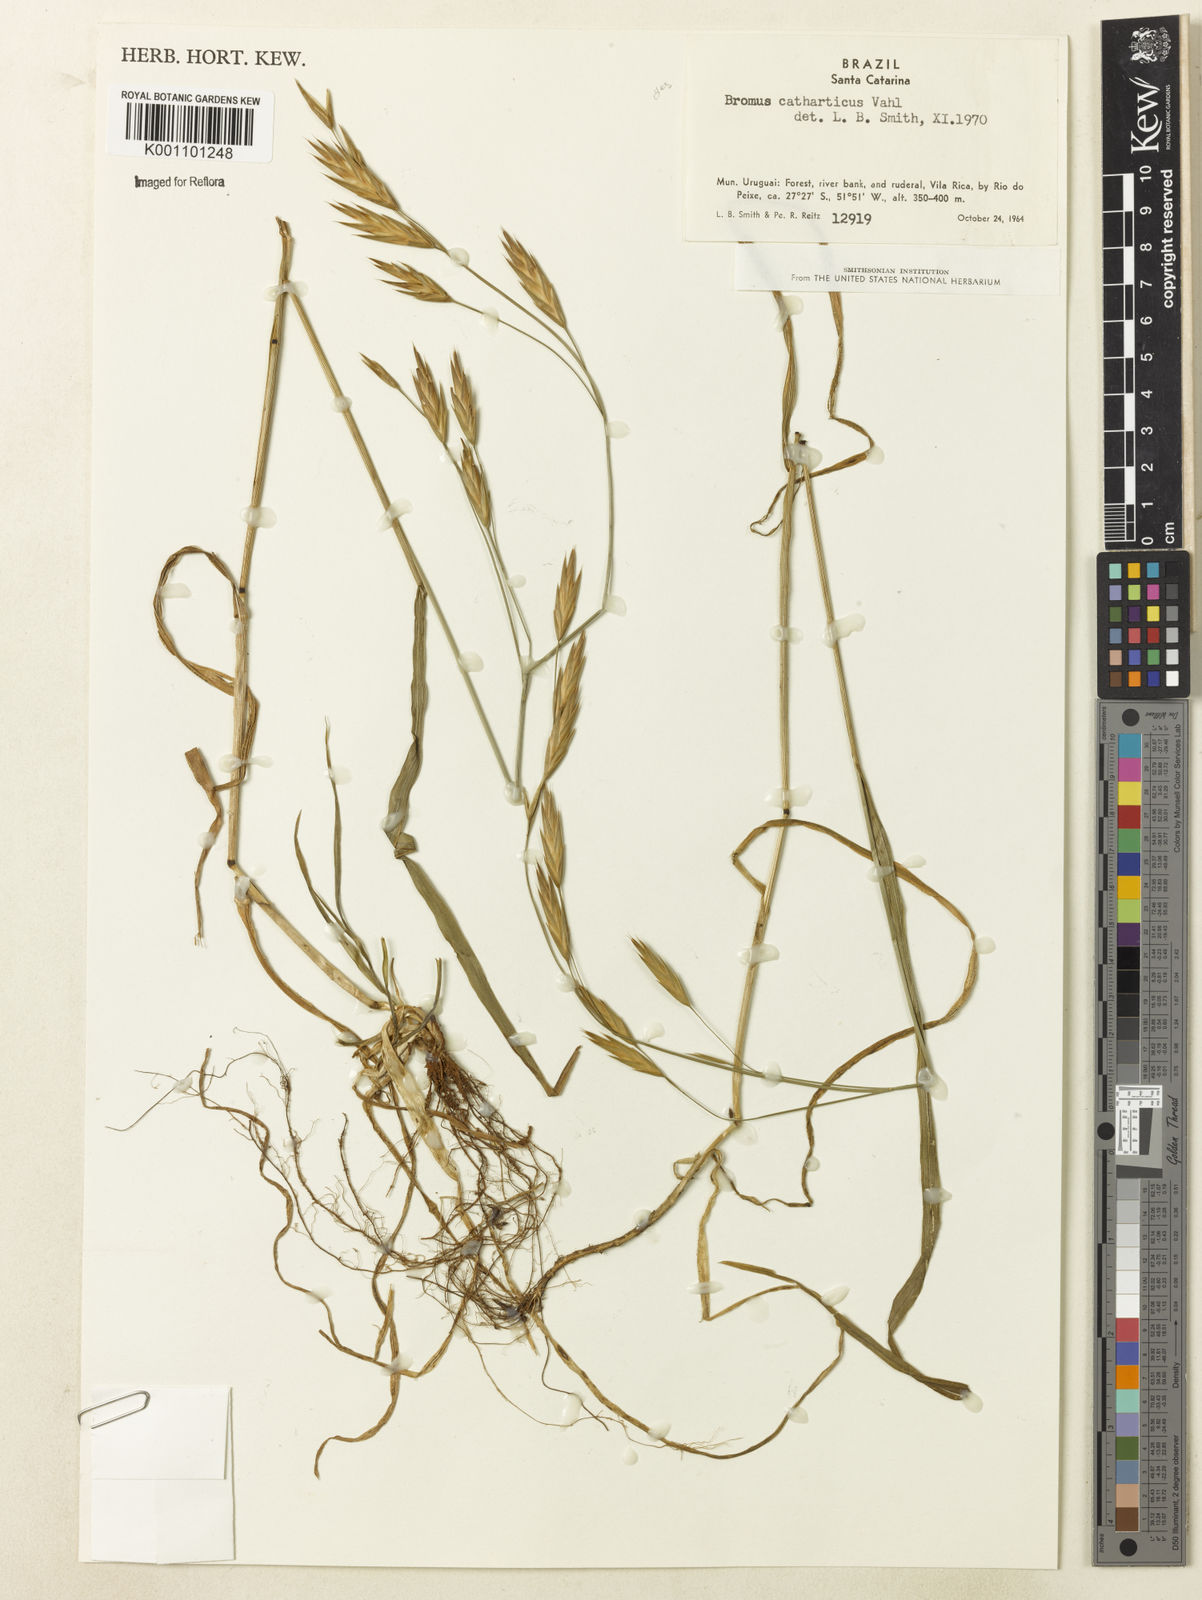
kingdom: Plantae
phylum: Tracheophyta
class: Liliopsida
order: Poales
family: Poaceae
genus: Bromus
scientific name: Bromus catharticus
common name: Rescuegrass
